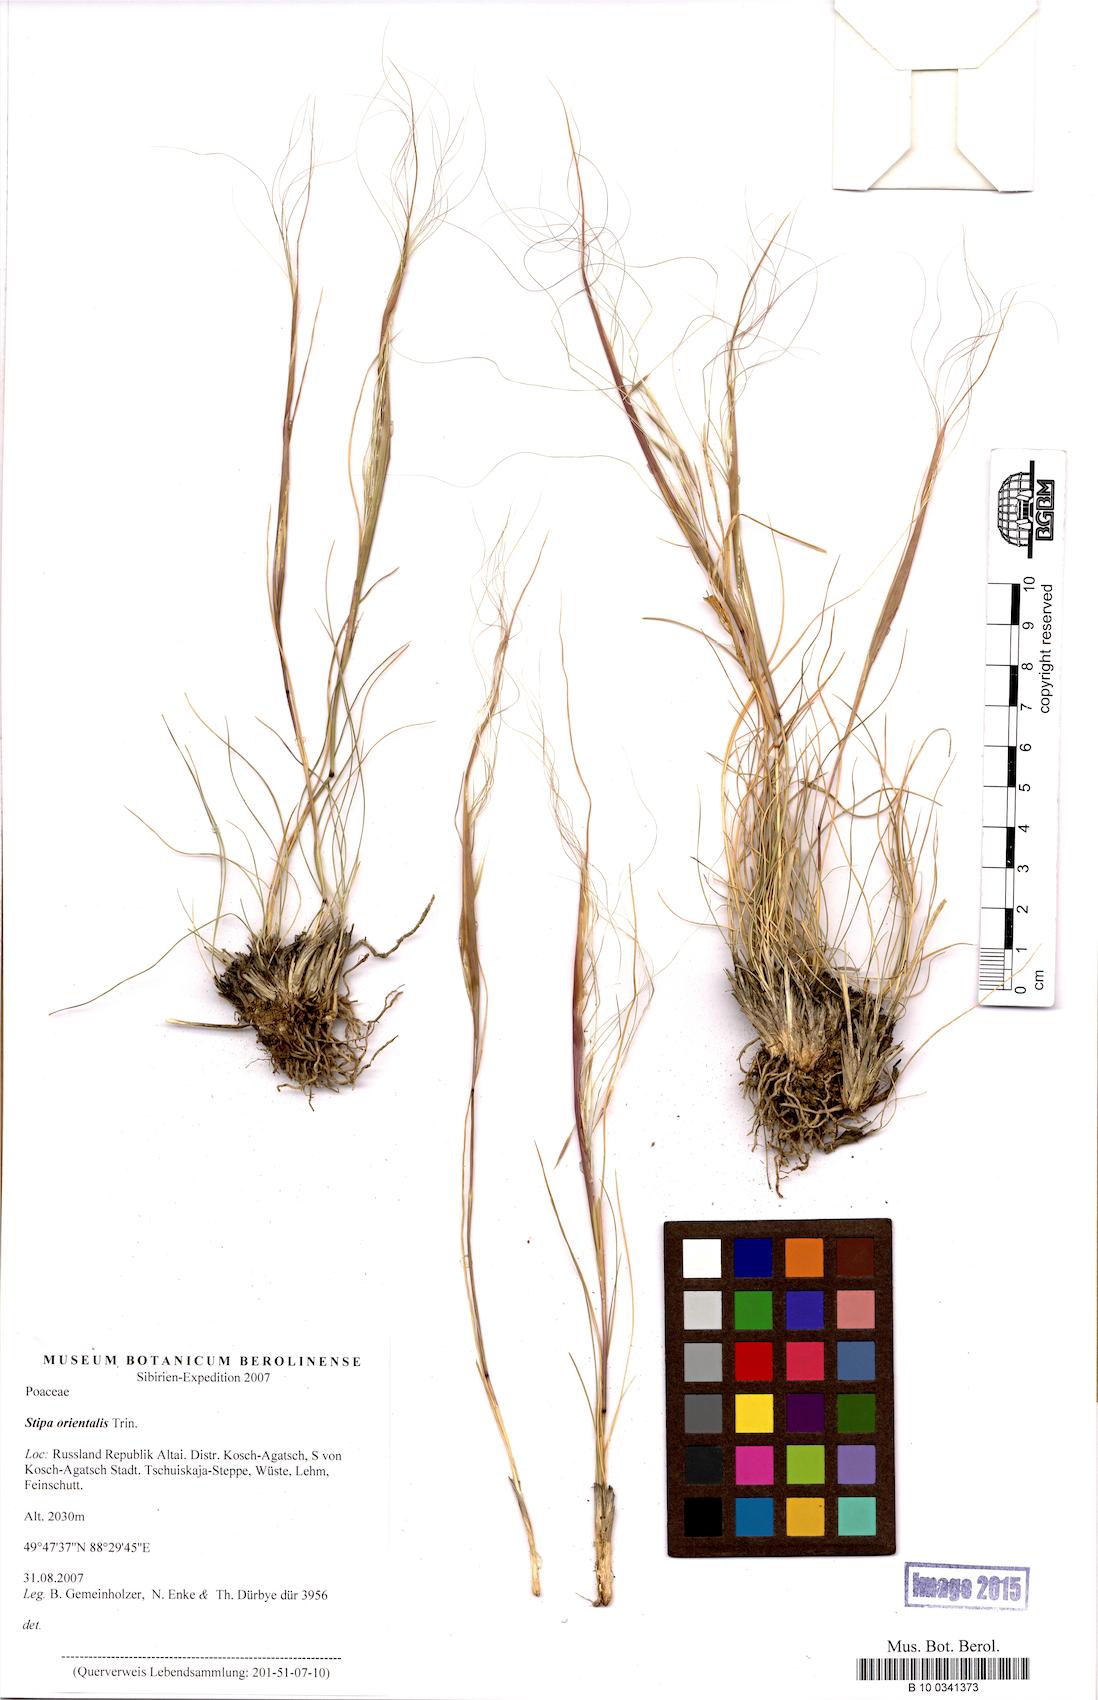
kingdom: Plantae
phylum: Tracheophyta
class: Liliopsida
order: Poales
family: Poaceae
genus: Stipa
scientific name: Stipa orientalis
